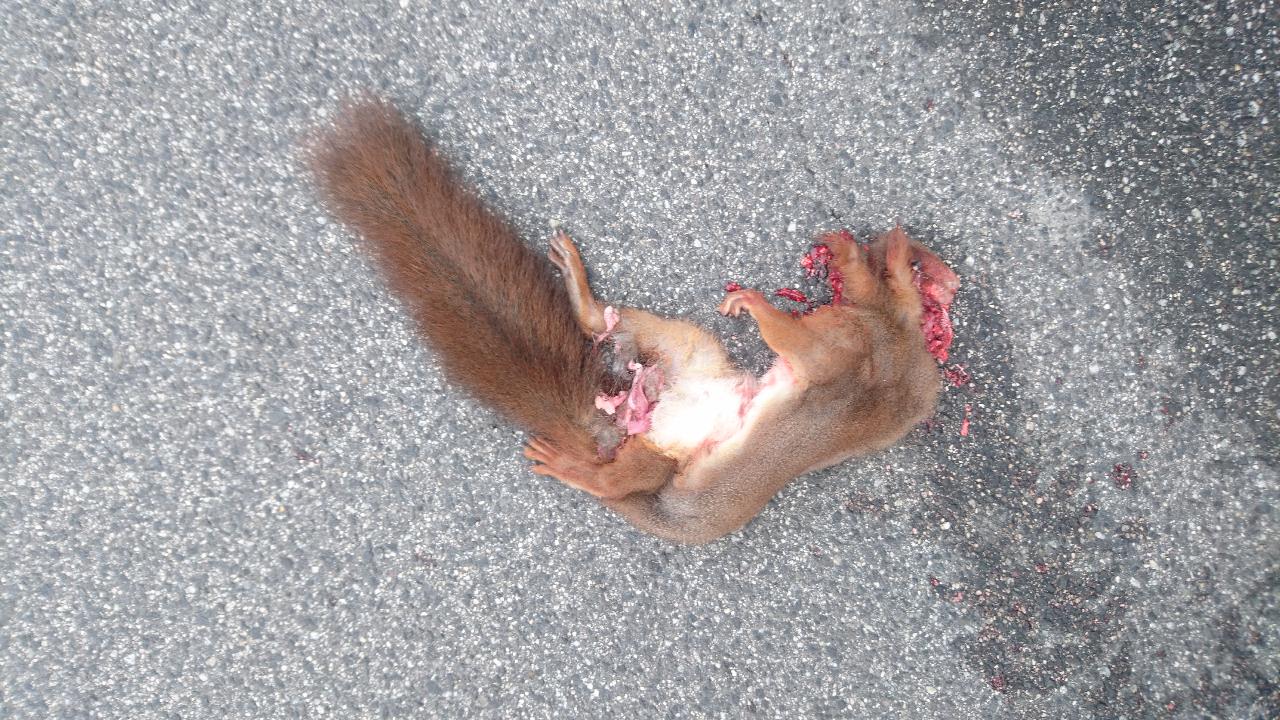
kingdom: Animalia
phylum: Chordata
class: Mammalia
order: Rodentia
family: Sciuridae
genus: Sciurus
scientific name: Sciurus vulgaris
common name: Eurasian red squirrel
